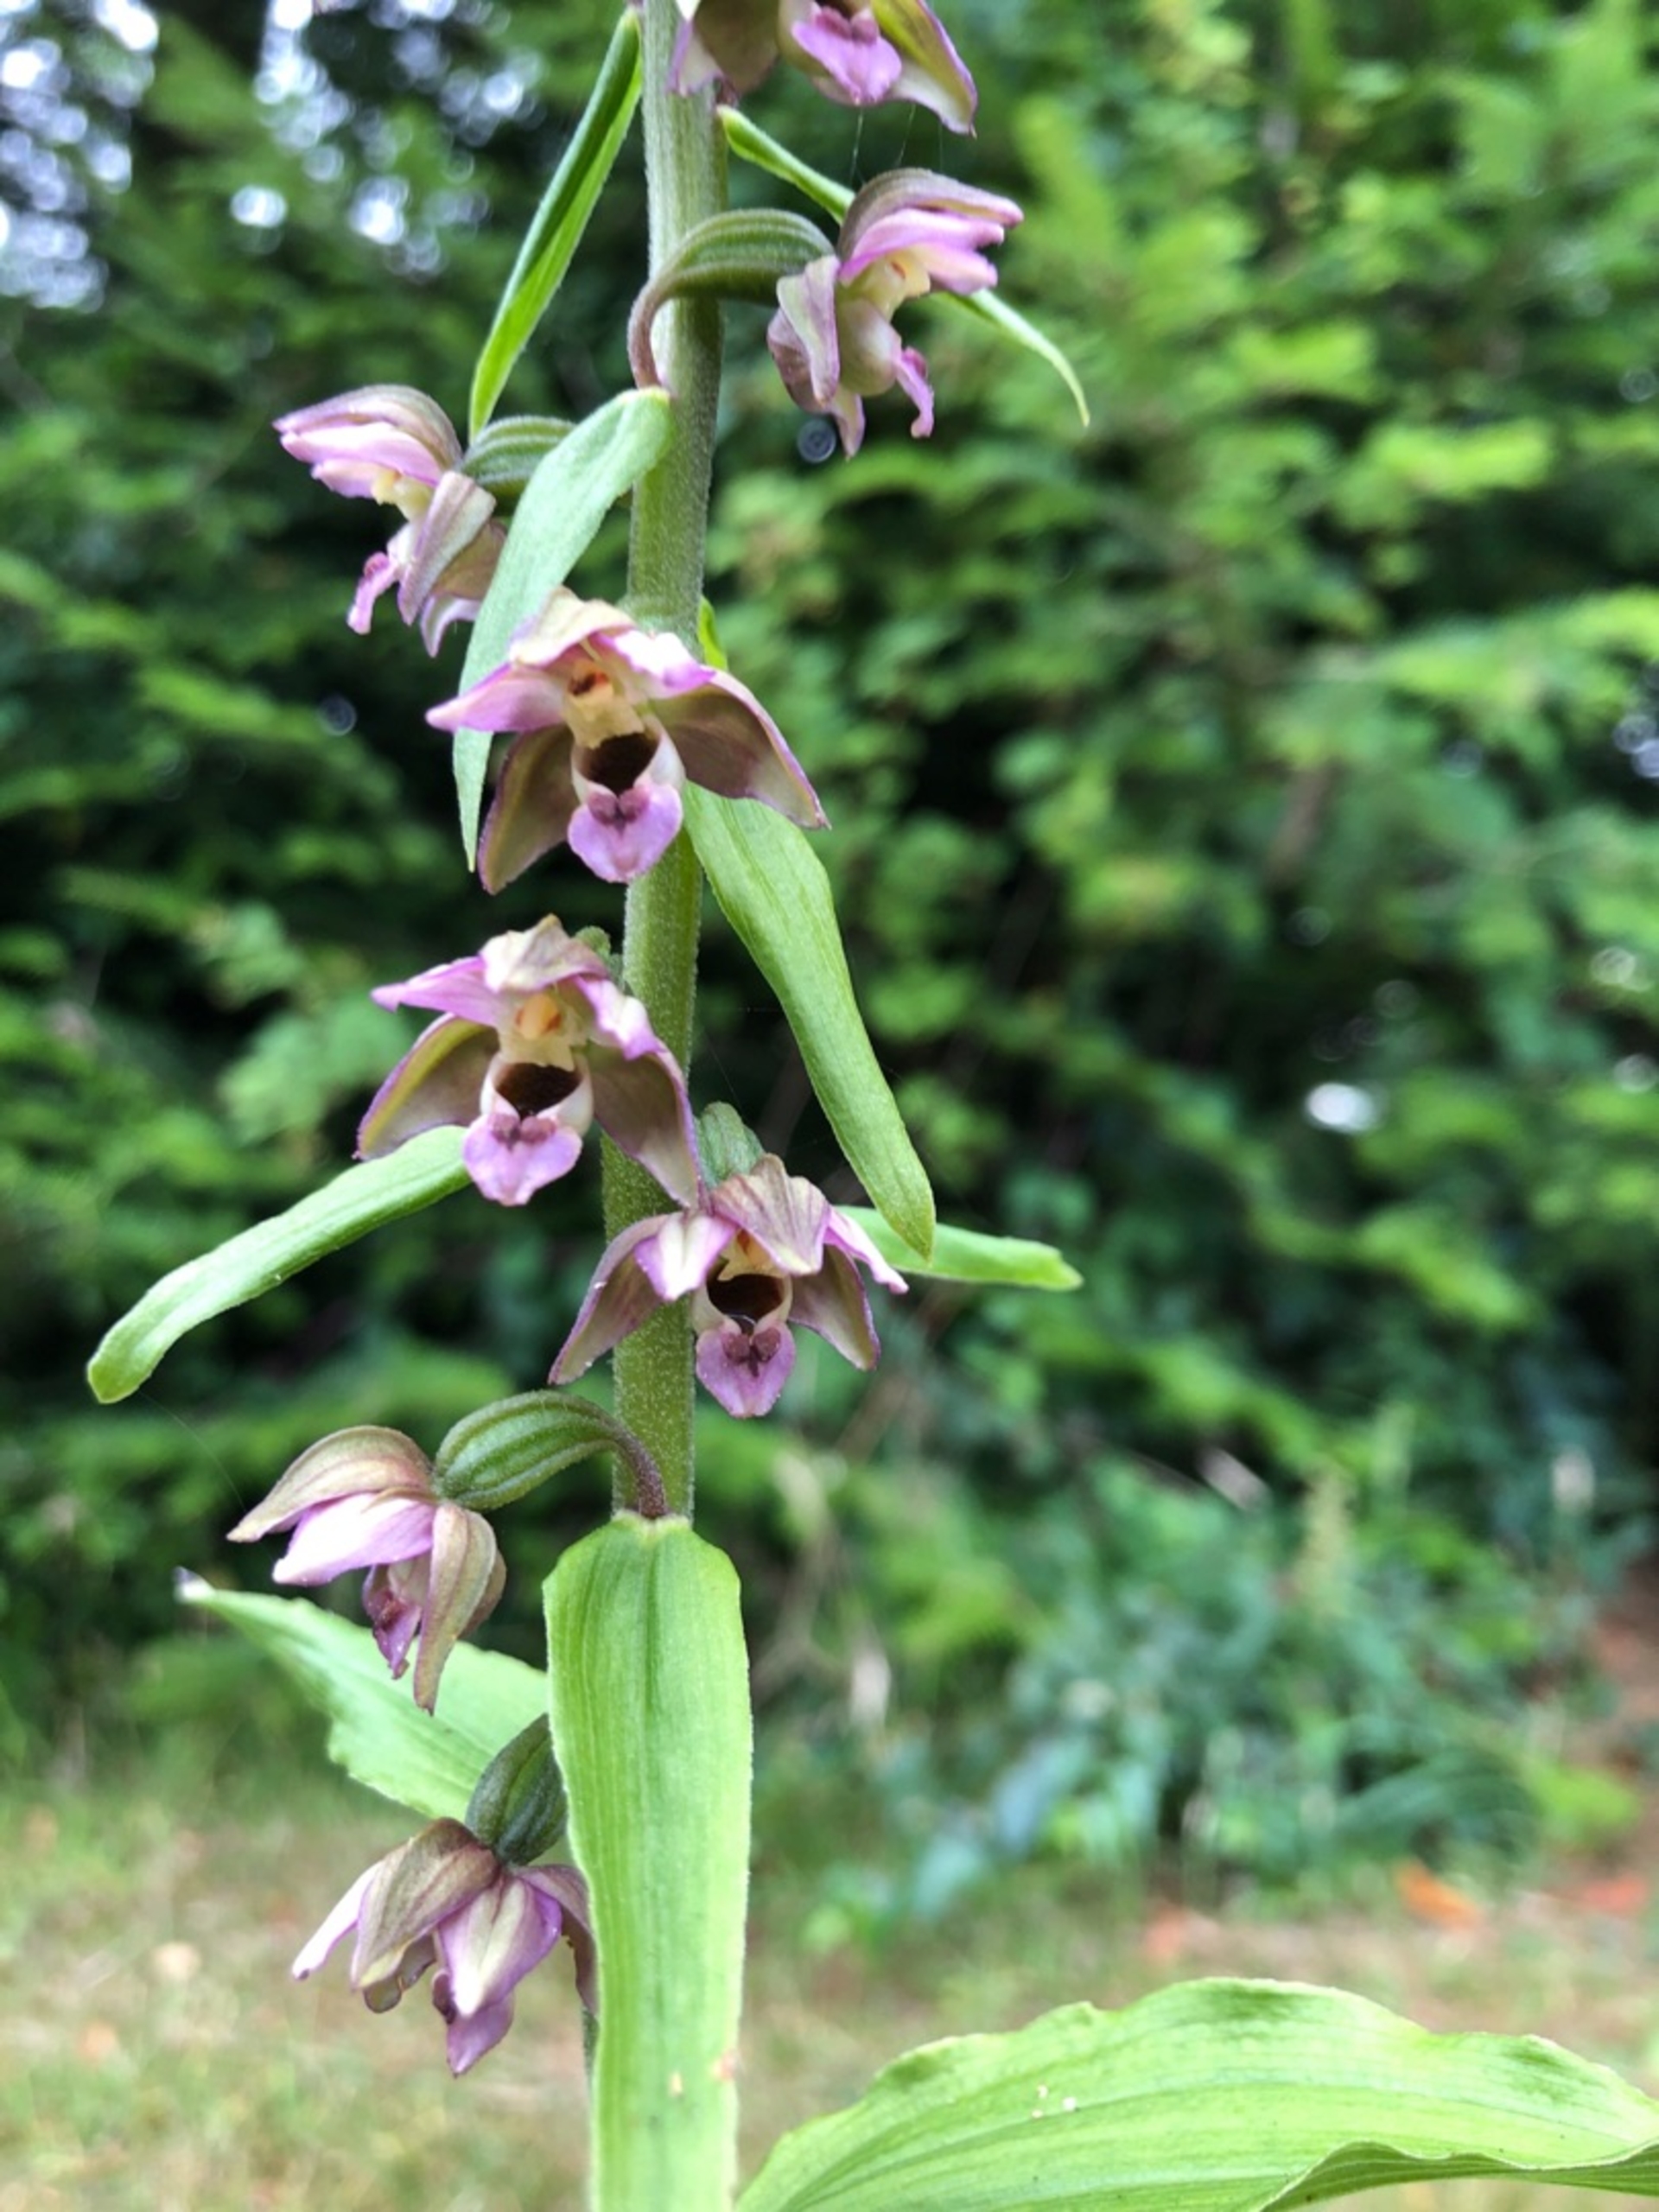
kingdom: Plantae
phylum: Tracheophyta
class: Liliopsida
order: Asparagales
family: Orchidaceae
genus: Epipactis
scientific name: Epipactis helleborine
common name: Skov-hullæbe
